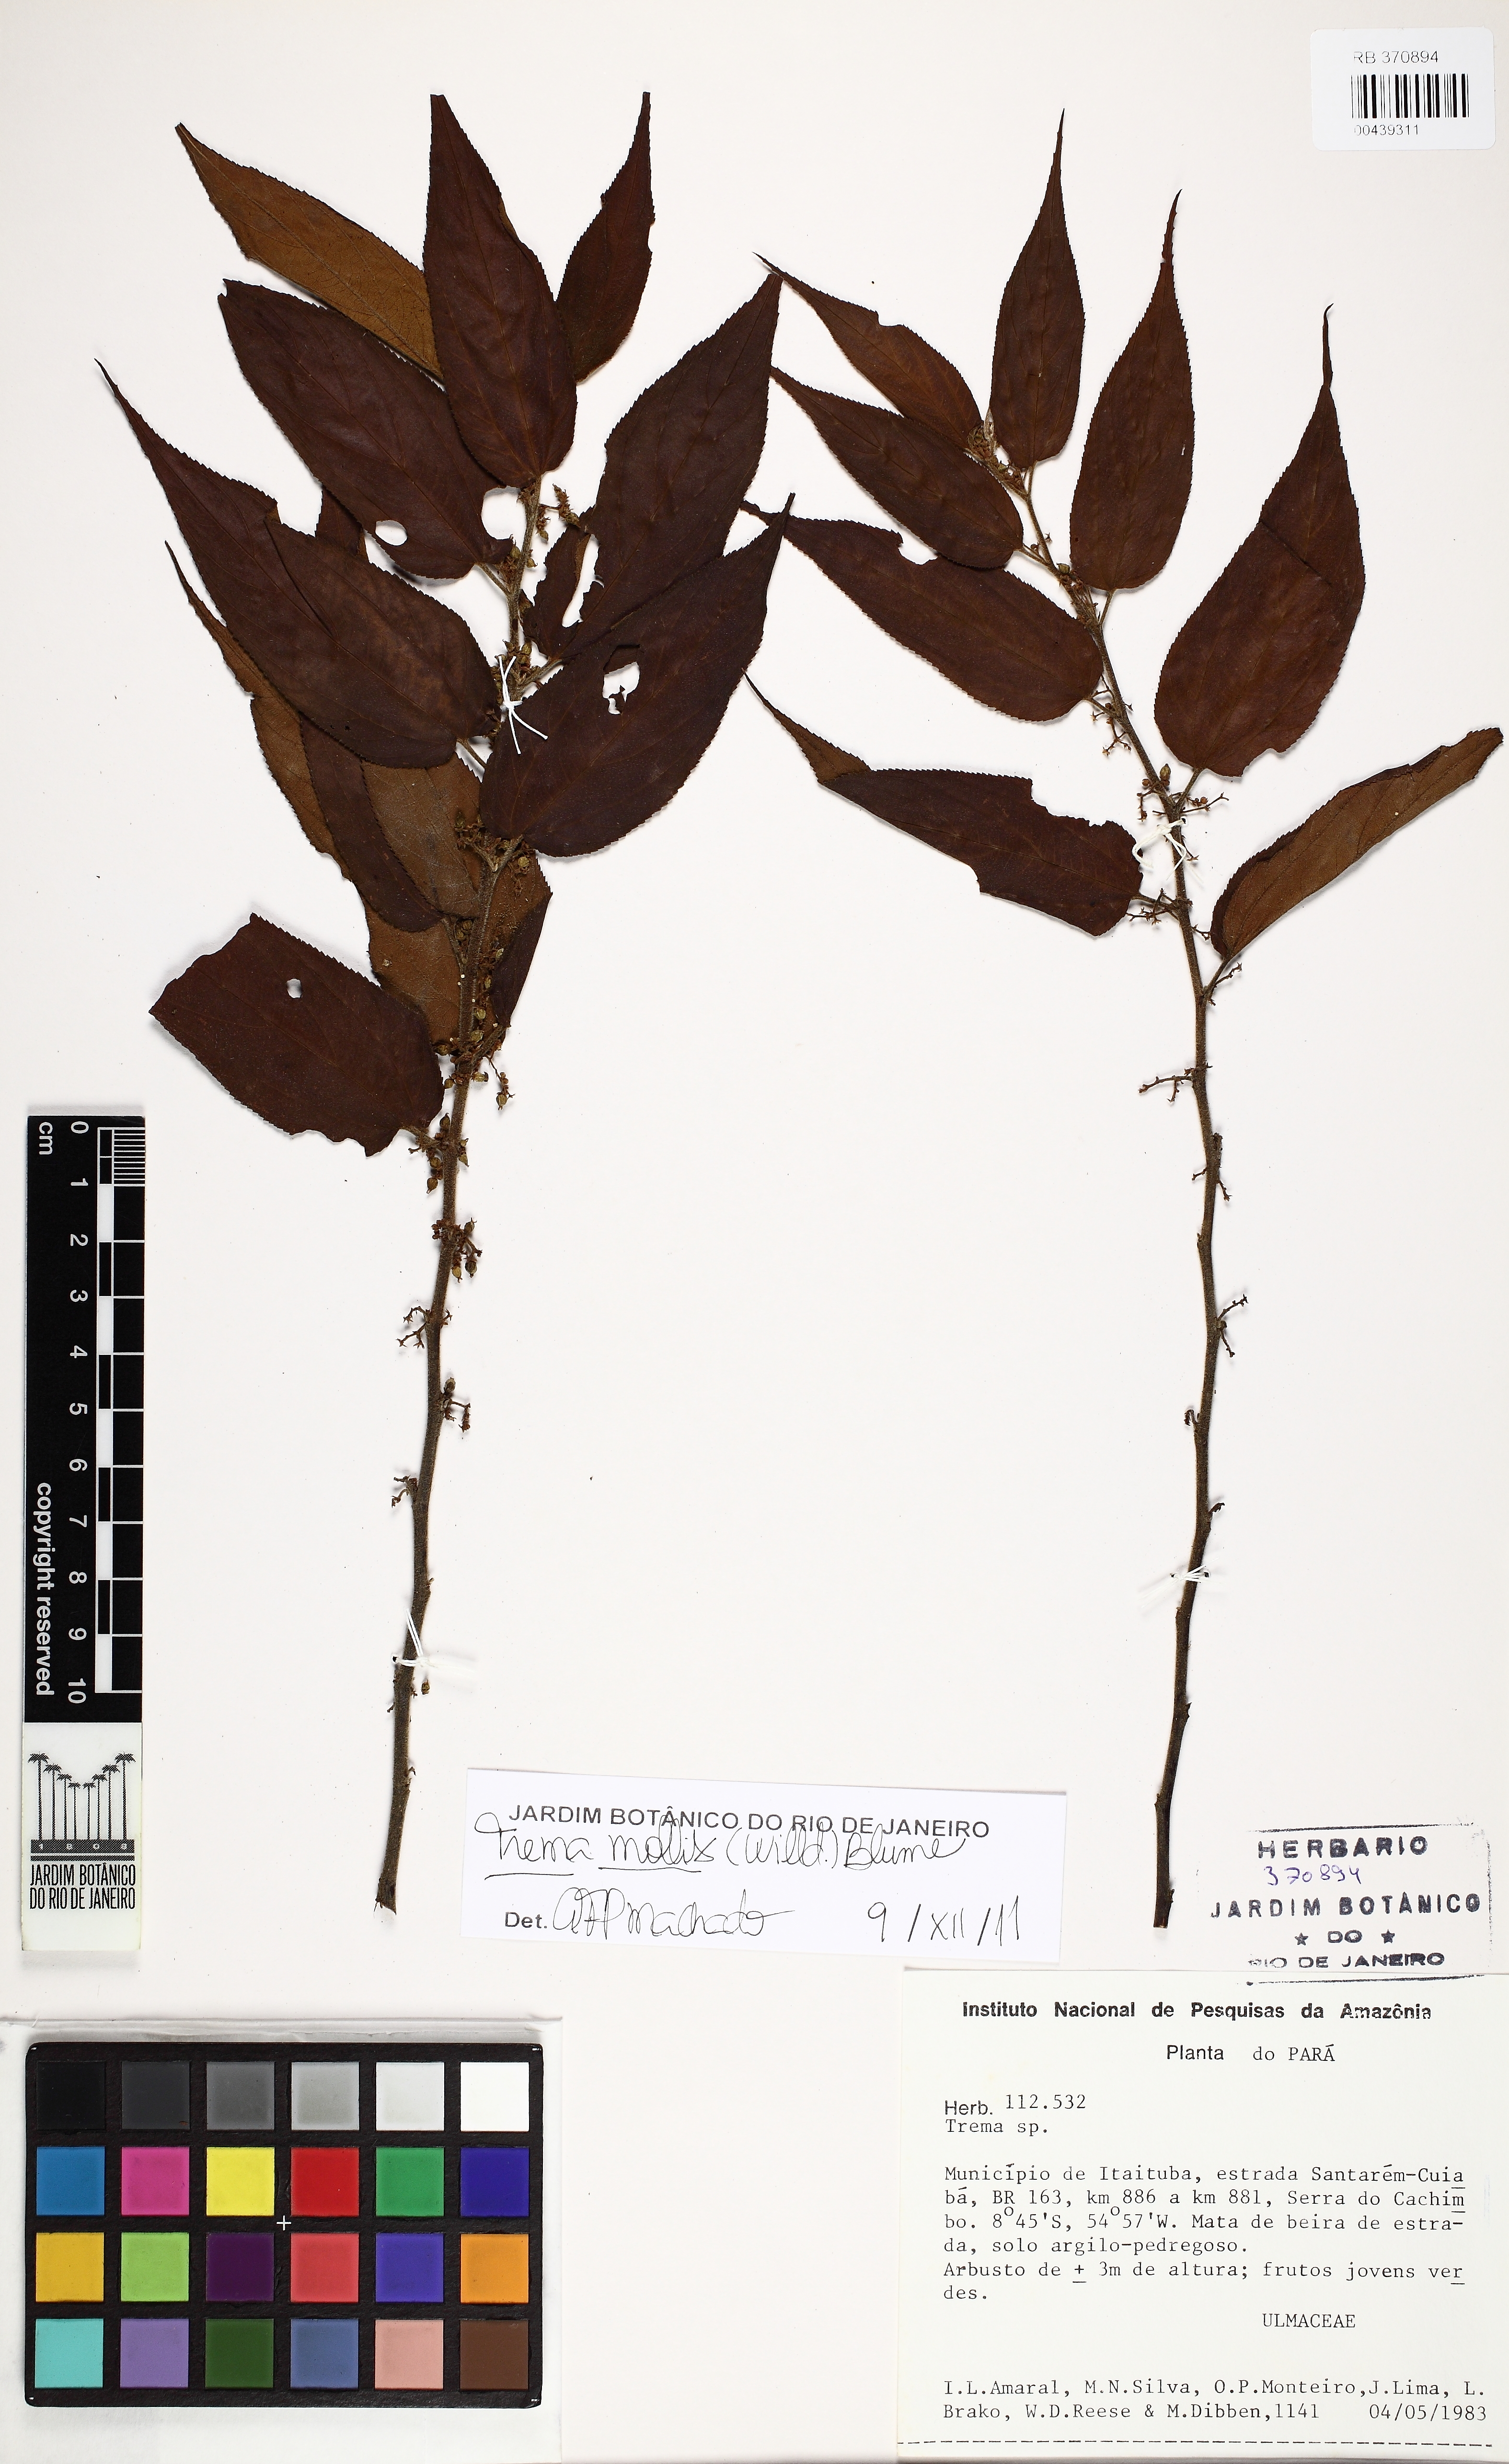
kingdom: Plantae
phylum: Tracheophyta
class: Magnoliopsida
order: Rosales
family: Cannabaceae
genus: Trema
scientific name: Trema micranthum
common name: Jamaican nettletree
